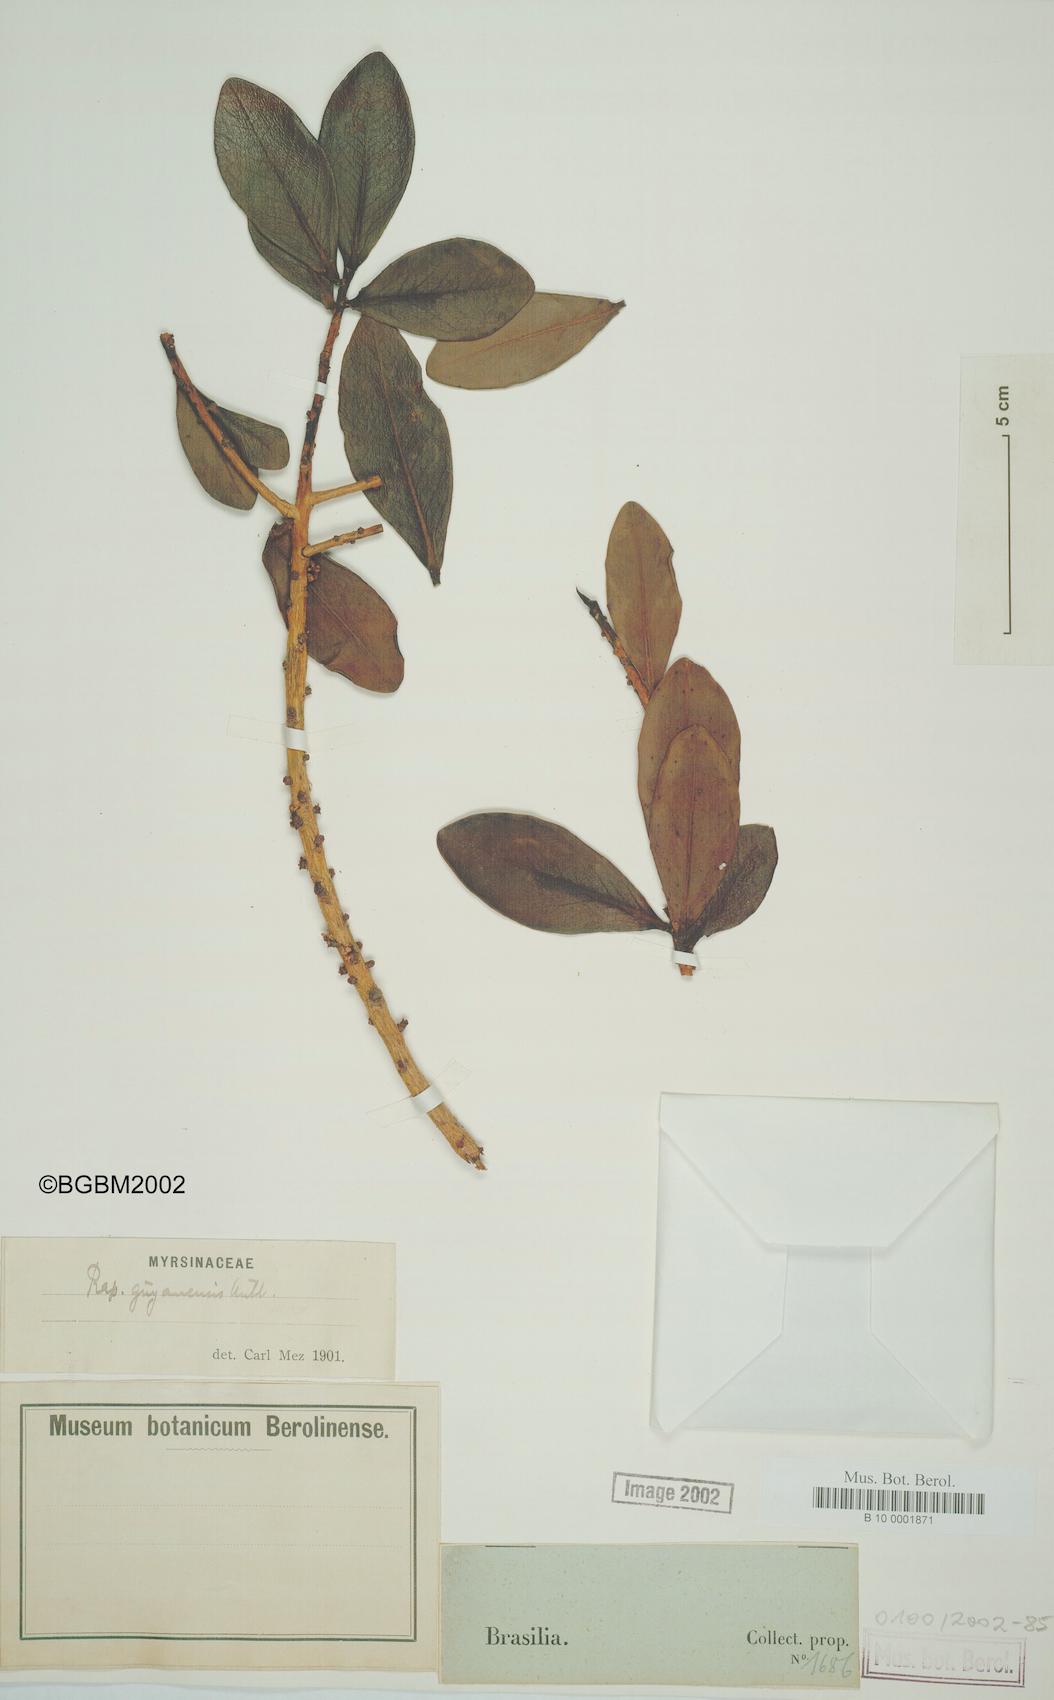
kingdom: Plantae
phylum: Tracheophyta
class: Magnoliopsida
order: Ericales
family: Primulaceae
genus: Myrsine
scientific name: Myrsine guianensis
